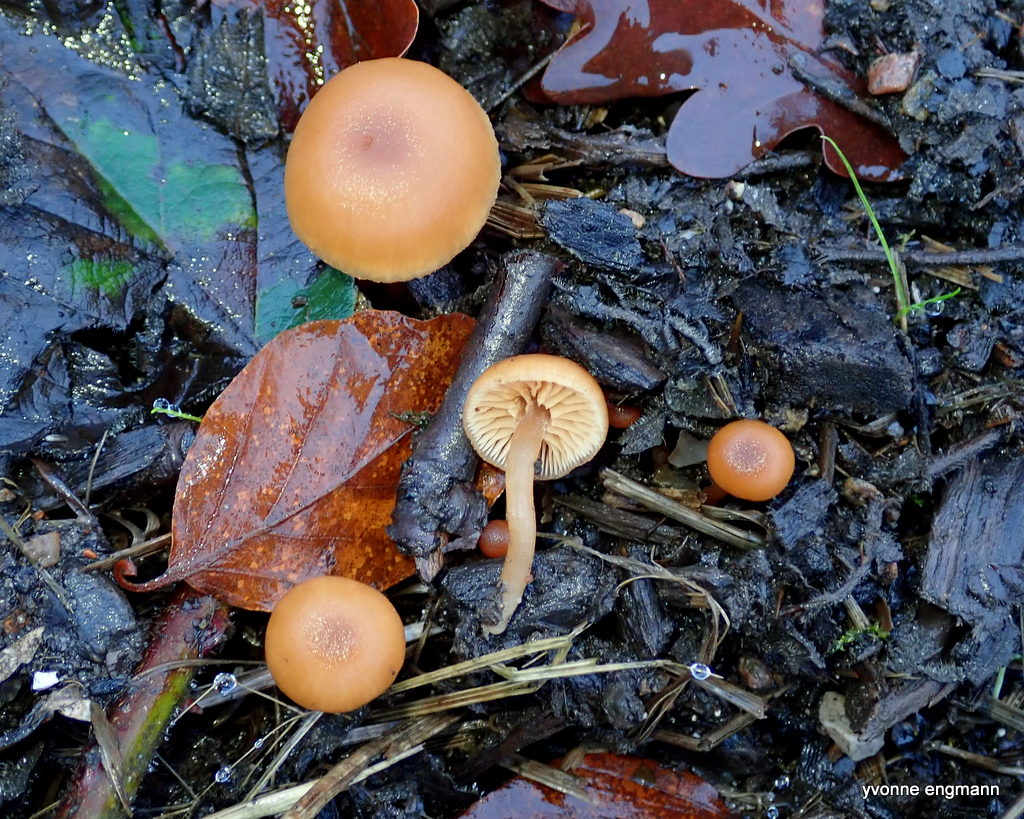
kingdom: Fungi
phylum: Basidiomycota
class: Agaricomycetes
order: Agaricales
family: Tubariaceae
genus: Tubaria
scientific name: Tubaria furfuracea
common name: kliddet fnughat
